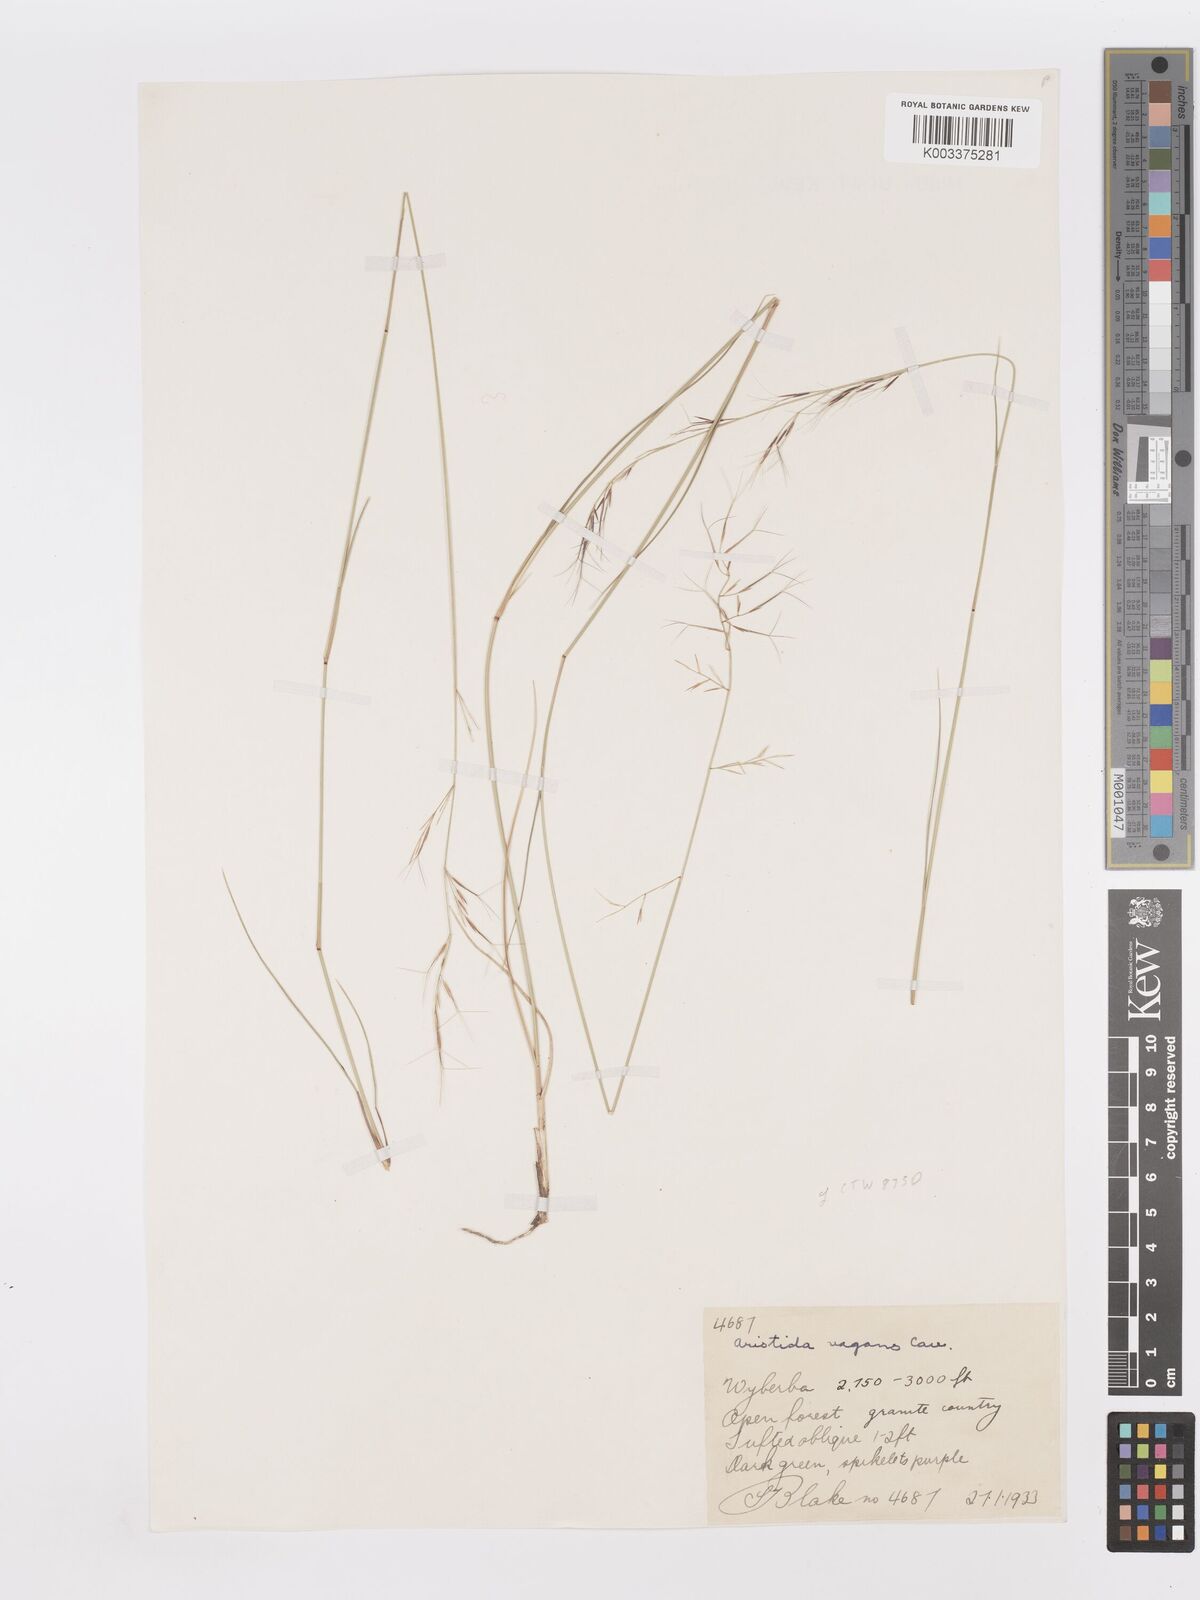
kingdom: Plantae
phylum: Tracheophyta
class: Liliopsida
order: Poales
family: Poaceae
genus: Aristida
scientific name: Aristida vagans
